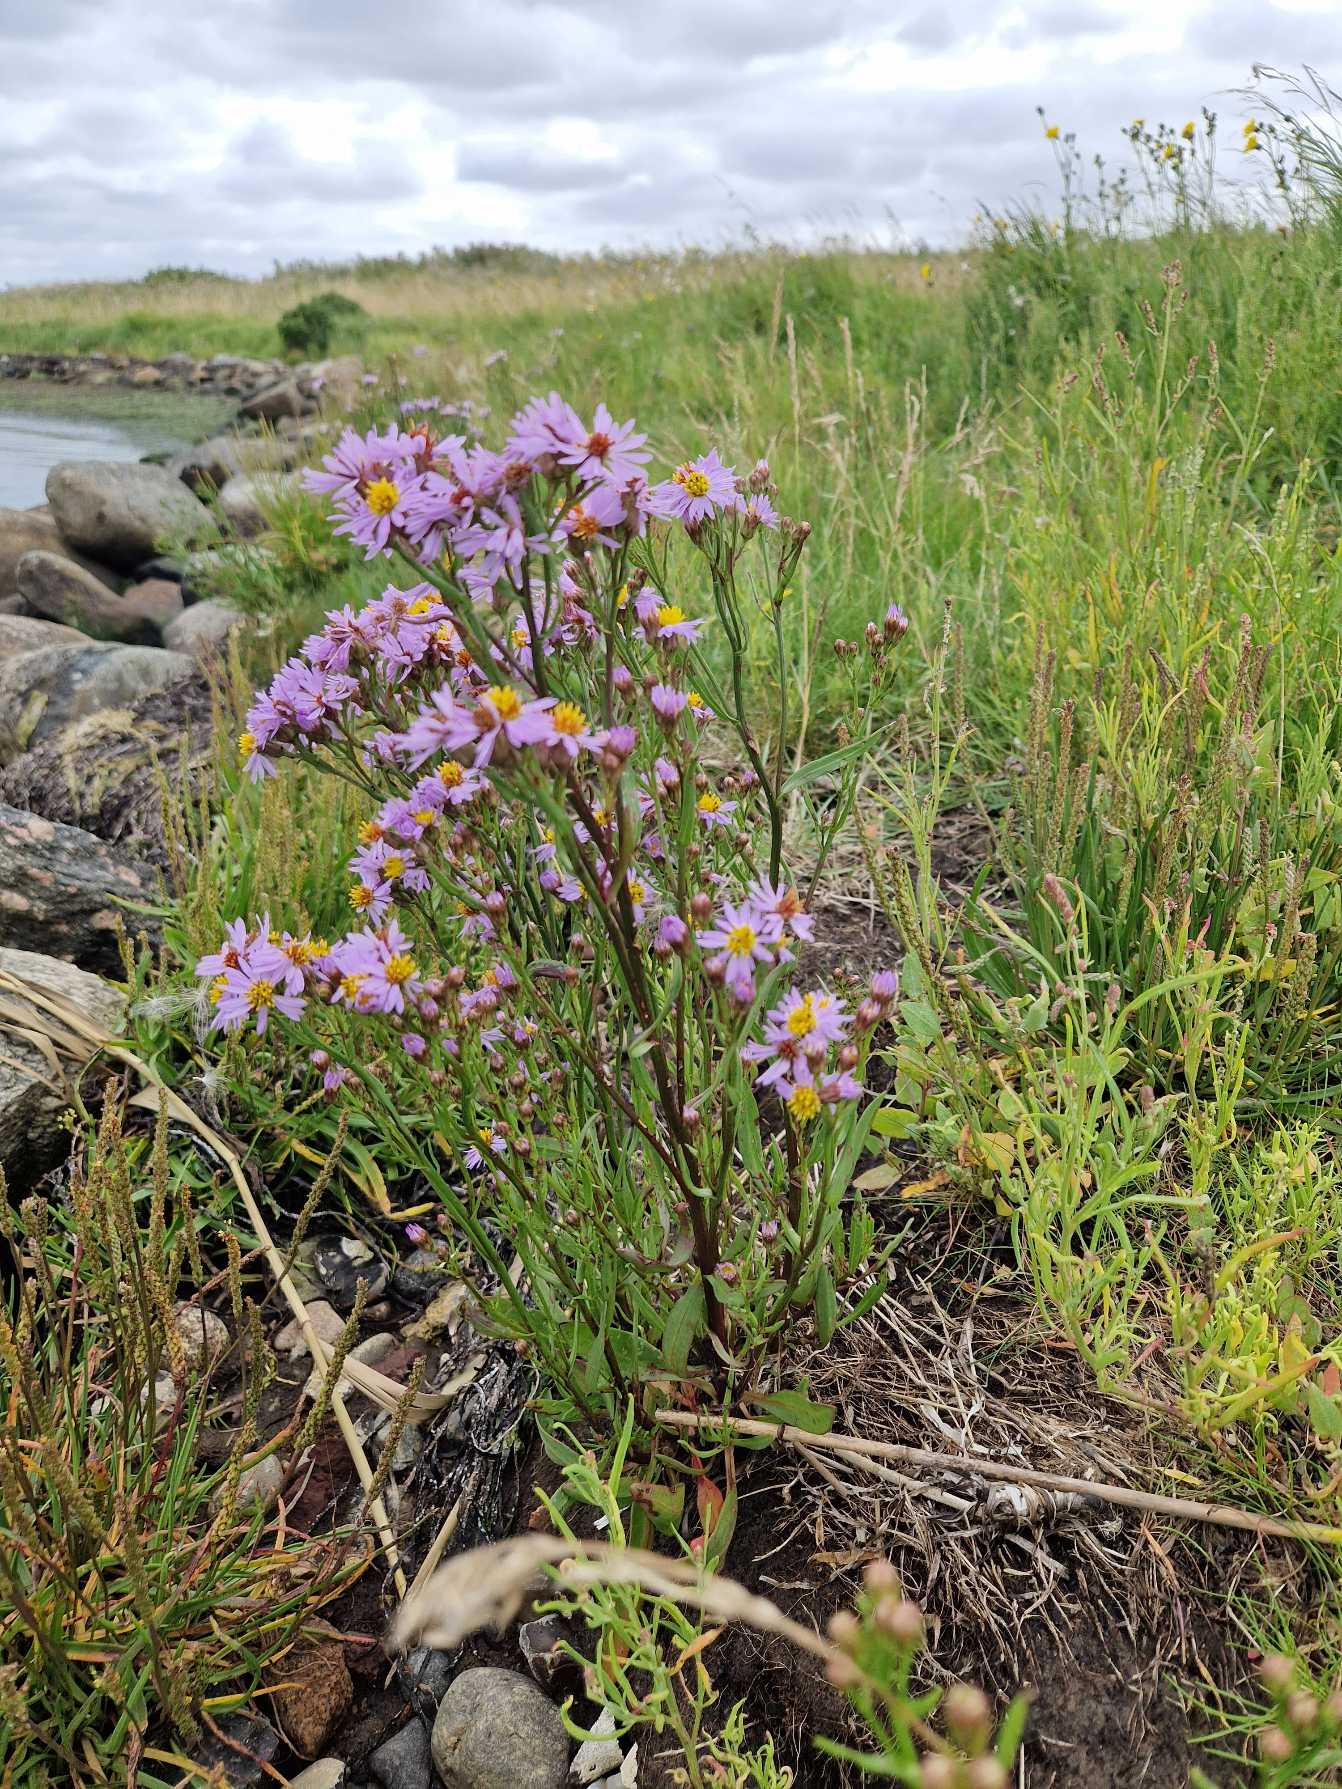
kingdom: Plantae
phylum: Tracheophyta
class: Magnoliopsida
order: Asterales
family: Asteraceae
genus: Tripolium
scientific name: Tripolium pannonicum
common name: Strandasters
